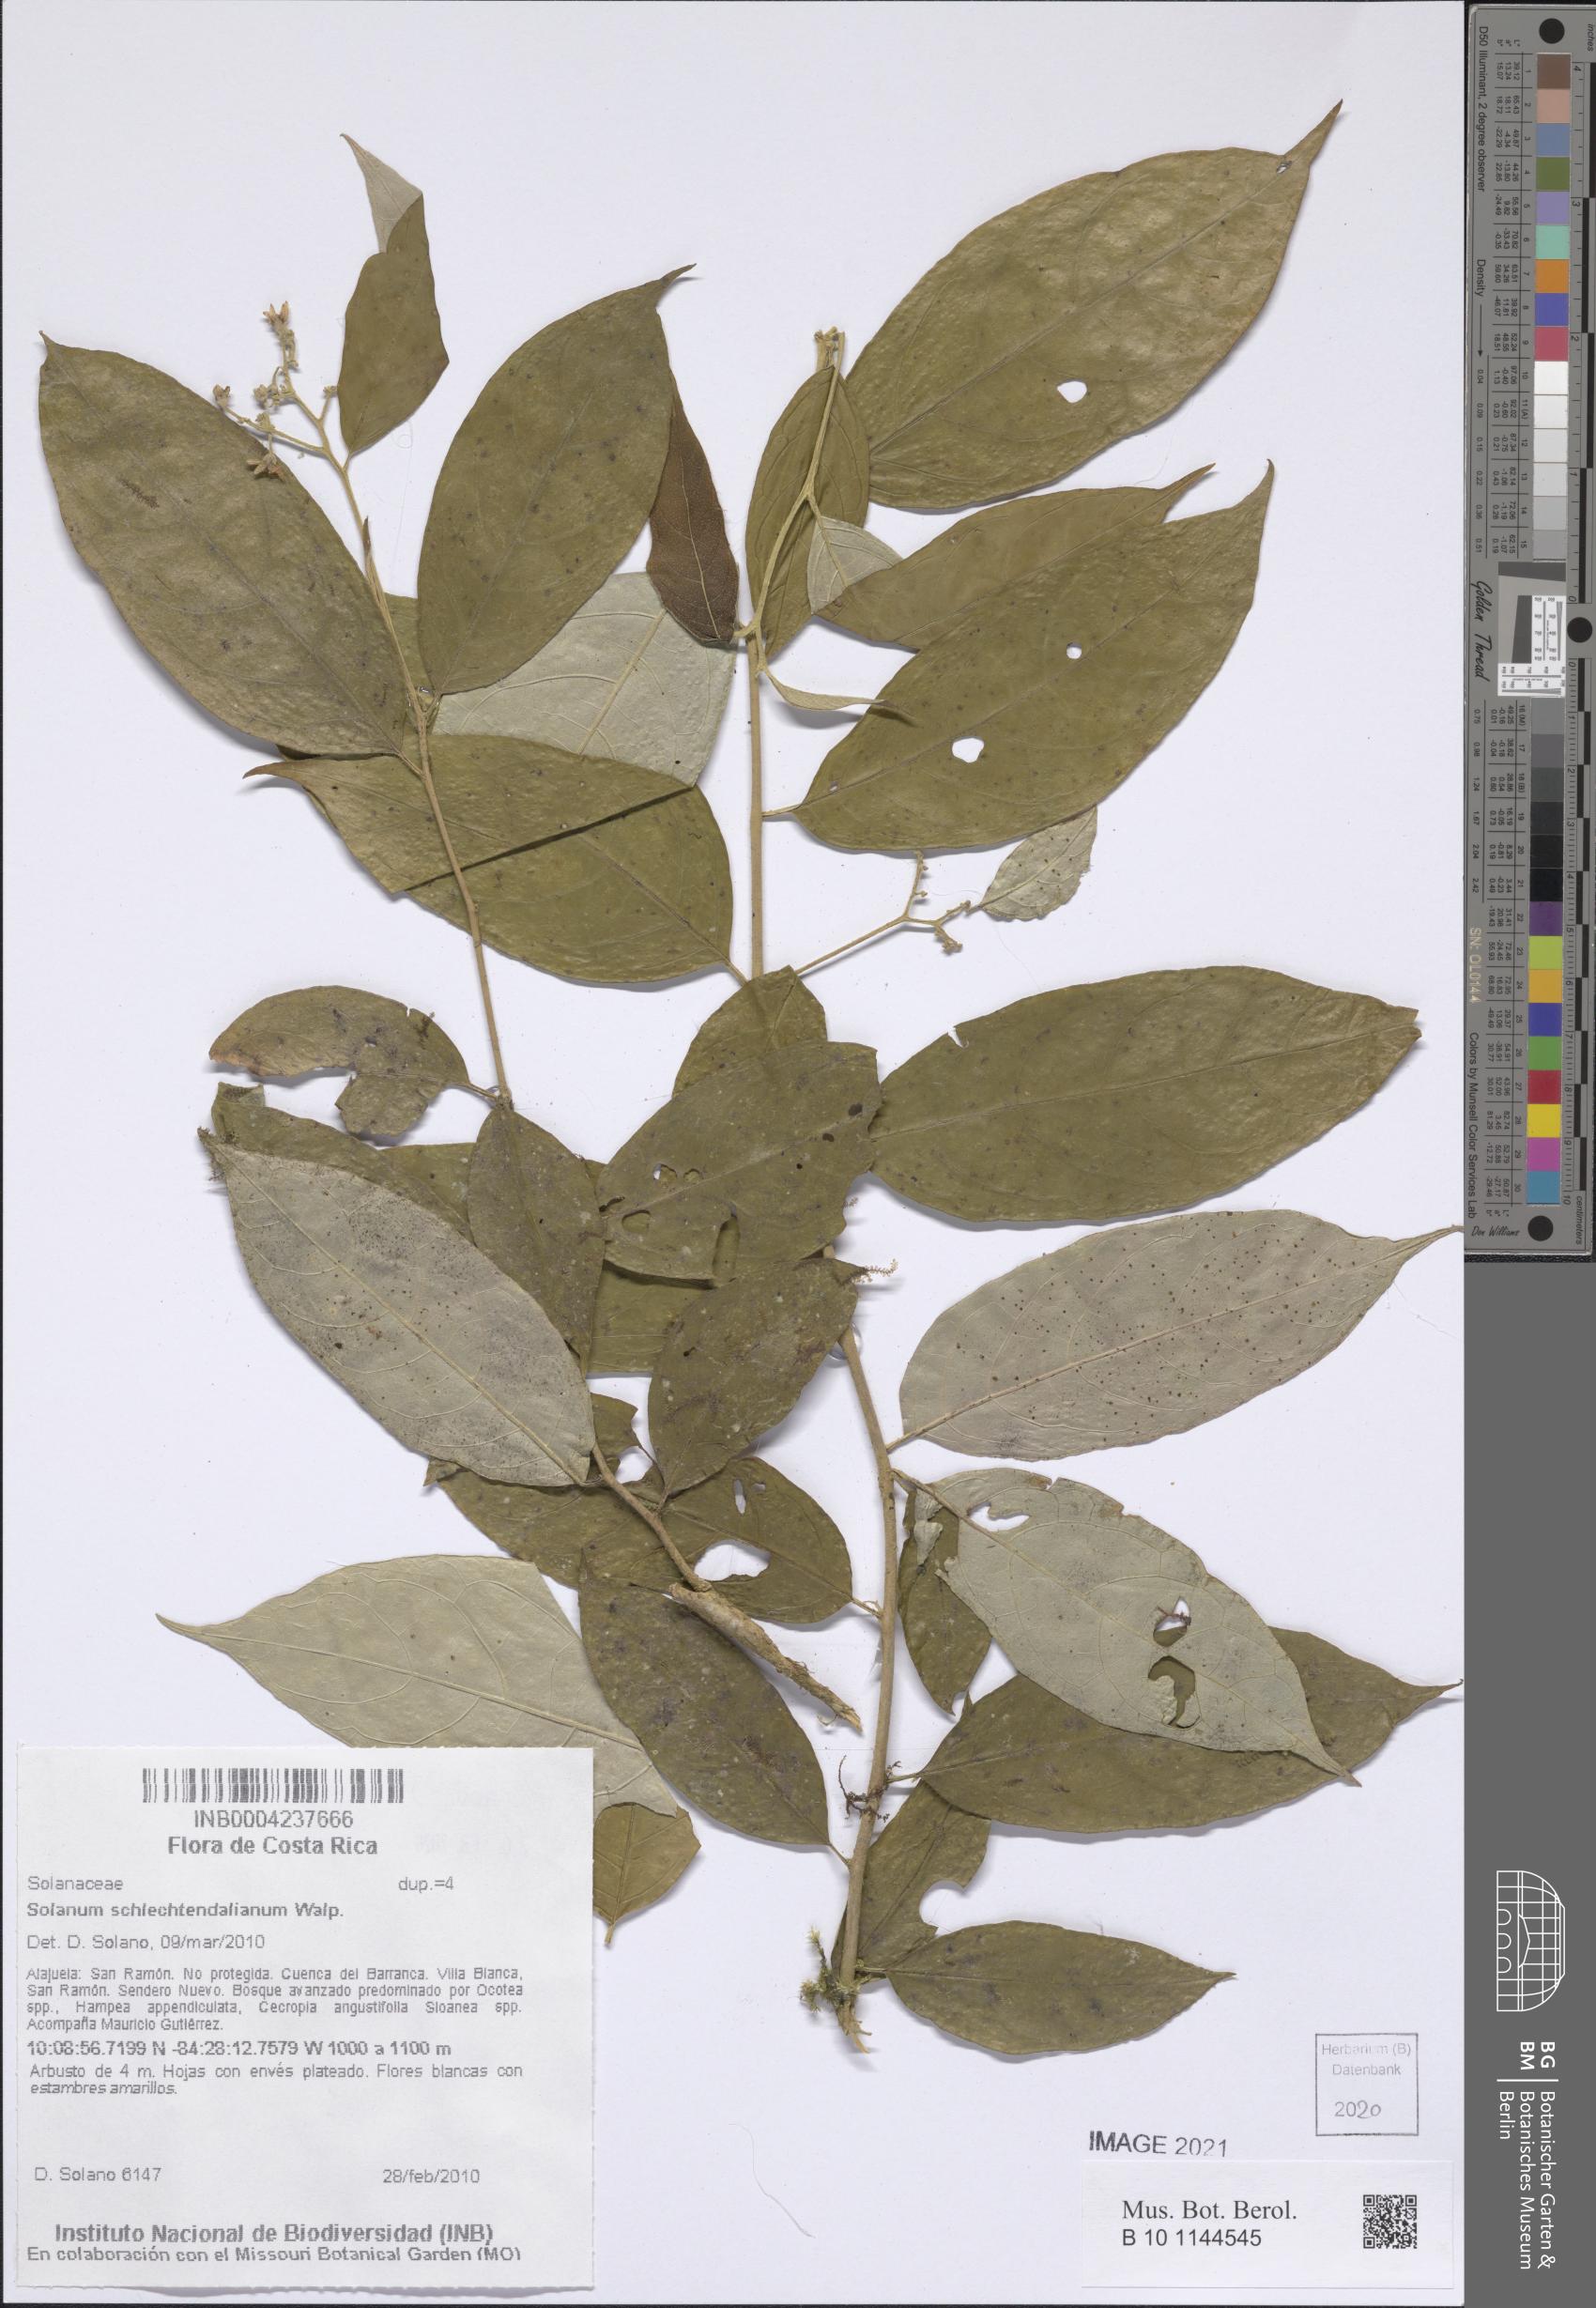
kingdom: Plantae
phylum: Tracheophyta
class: Magnoliopsida
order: Solanales
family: Solanaceae
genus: Solanum
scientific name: Solanum schlechtendalianum
